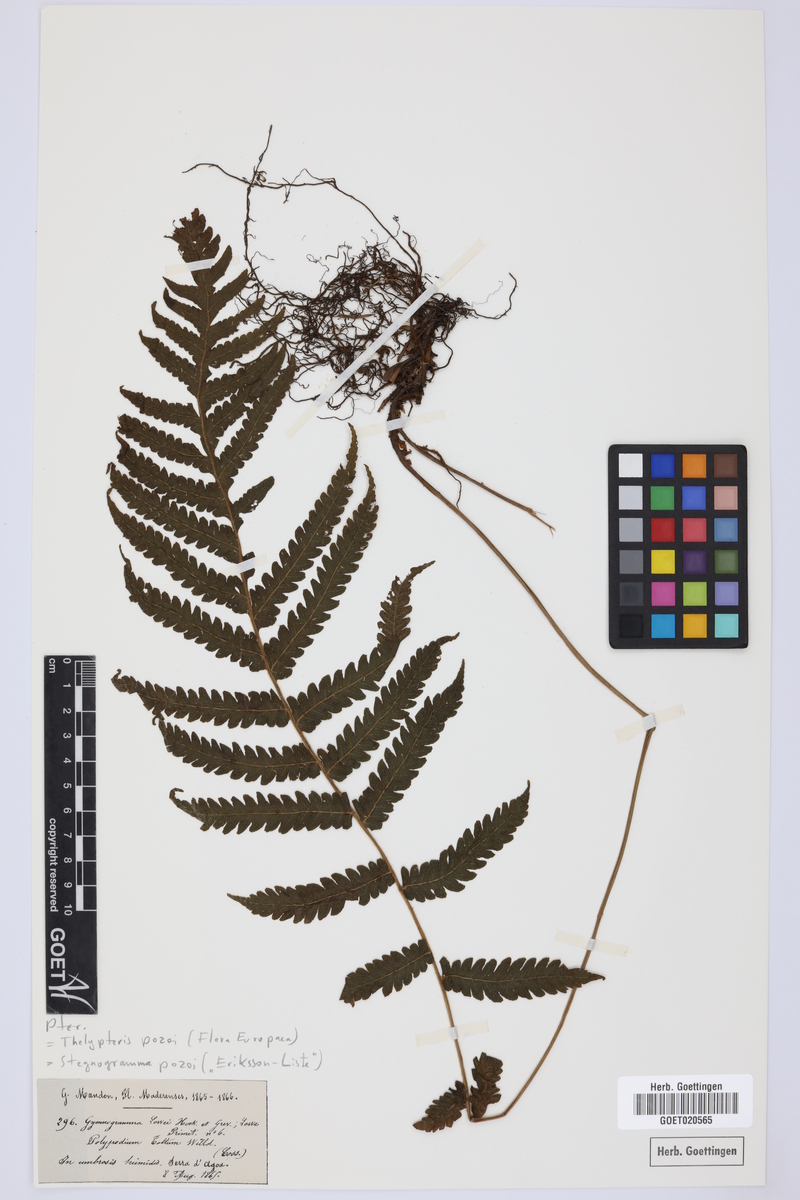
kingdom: Plantae
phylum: Tracheophyta
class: Polypodiopsida
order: Polypodiales
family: Thelypteridaceae
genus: Leptogramma
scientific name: Leptogramma pozoi
